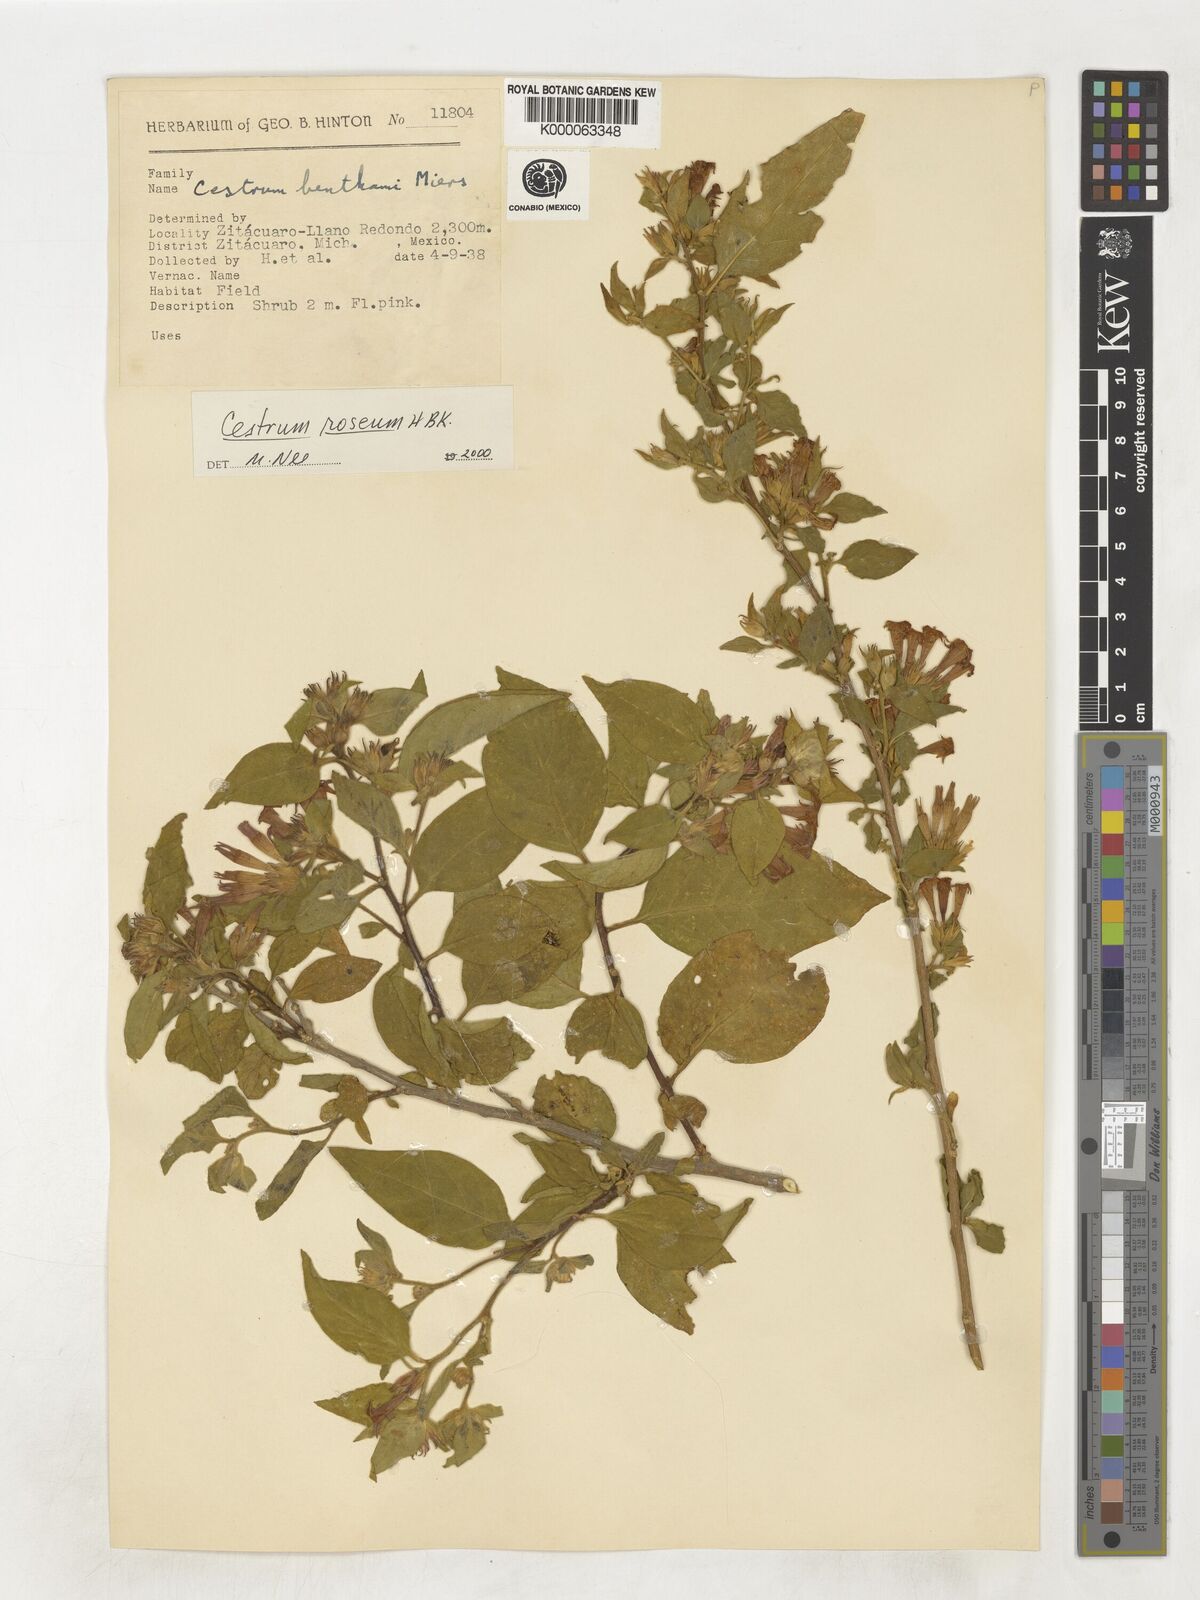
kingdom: Plantae
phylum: Tracheophyta
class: Magnoliopsida
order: Solanales
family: Solanaceae
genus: Cestrum
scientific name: Cestrum
